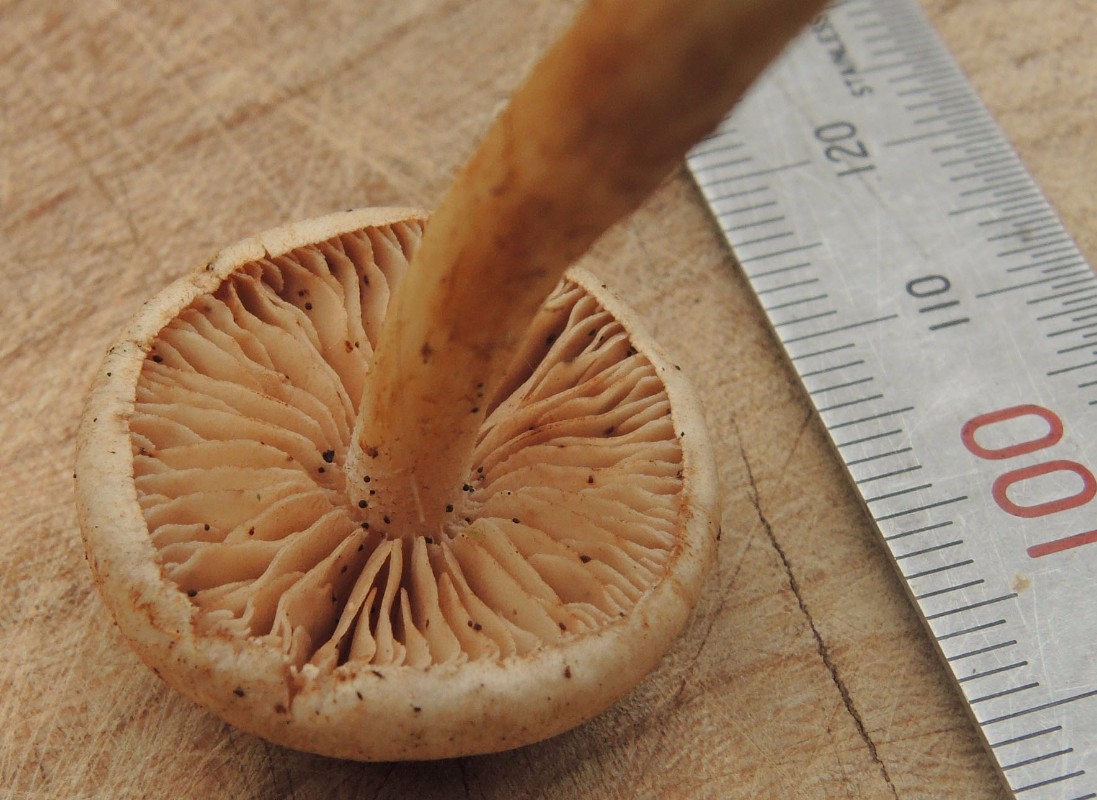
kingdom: Fungi
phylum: Basidiomycota
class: Agaricomycetes
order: Agaricales
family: Hymenogastraceae
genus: Hebeloma
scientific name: Hebeloma fusisporum
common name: kandis-tåreblad
